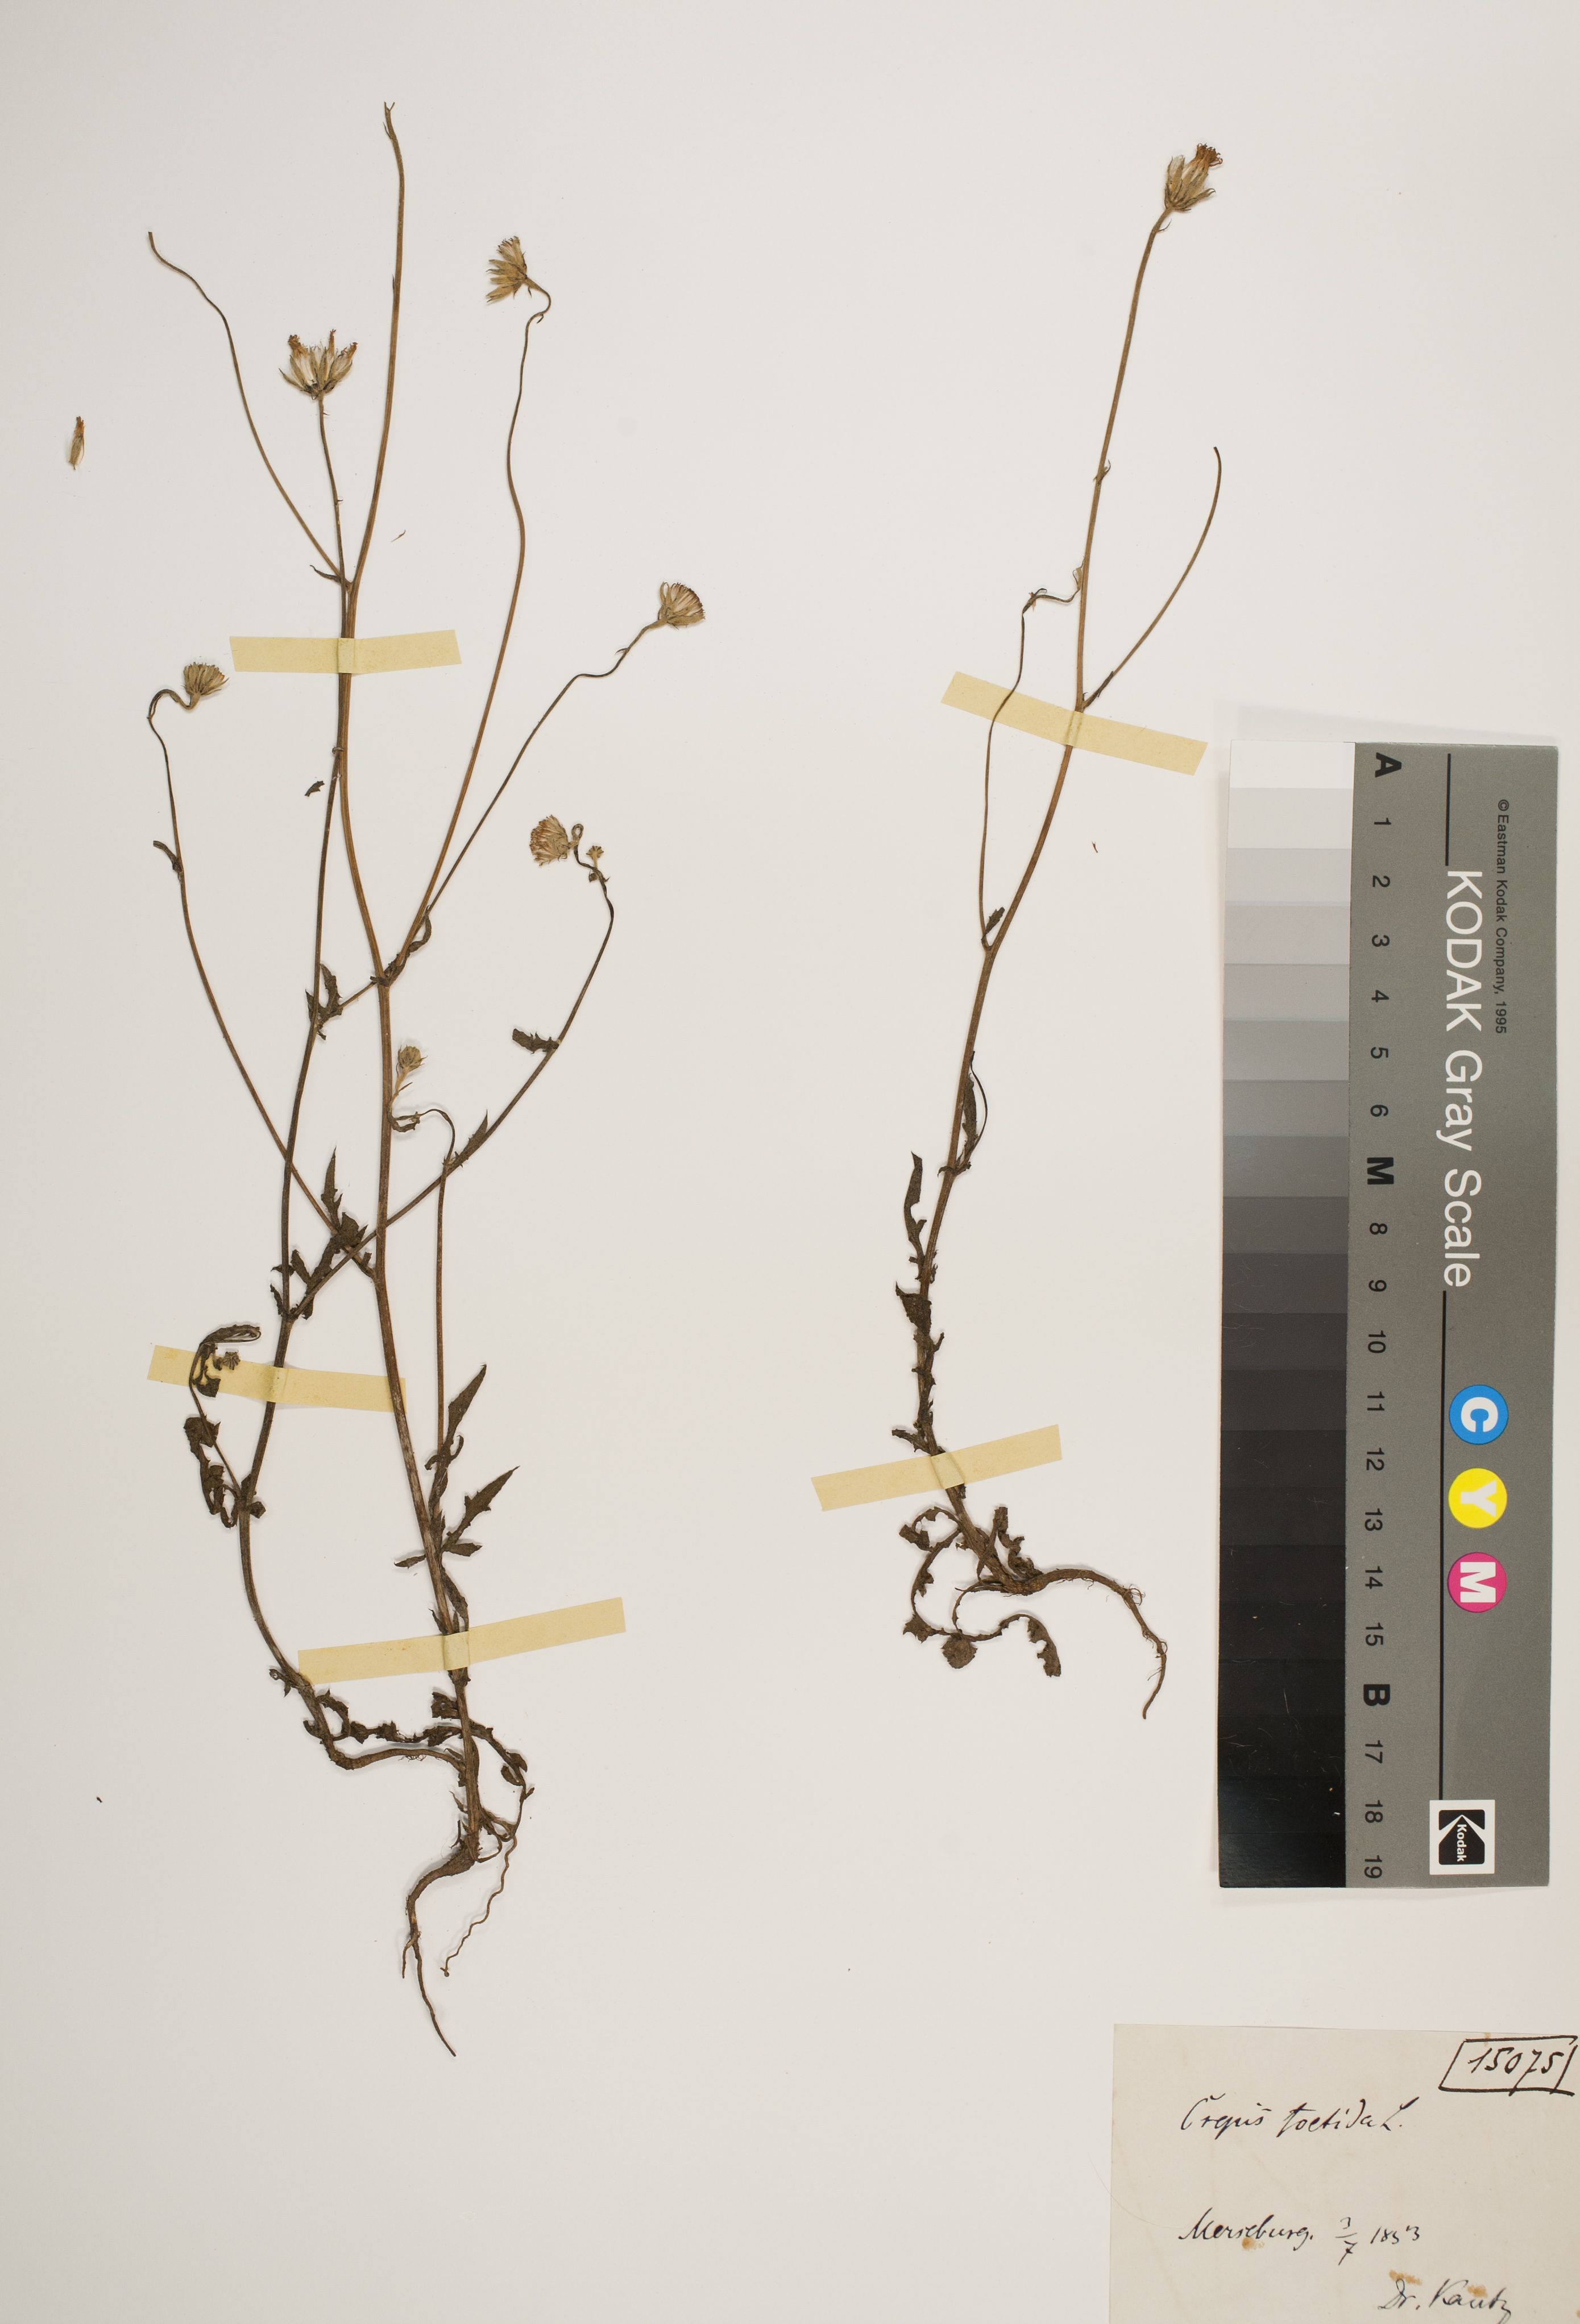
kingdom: Plantae
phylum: Tracheophyta
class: Magnoliopsida
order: Asterales
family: Asteraceae
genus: Crepis
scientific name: Crepis foetida
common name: Stinking hawk's-beard
